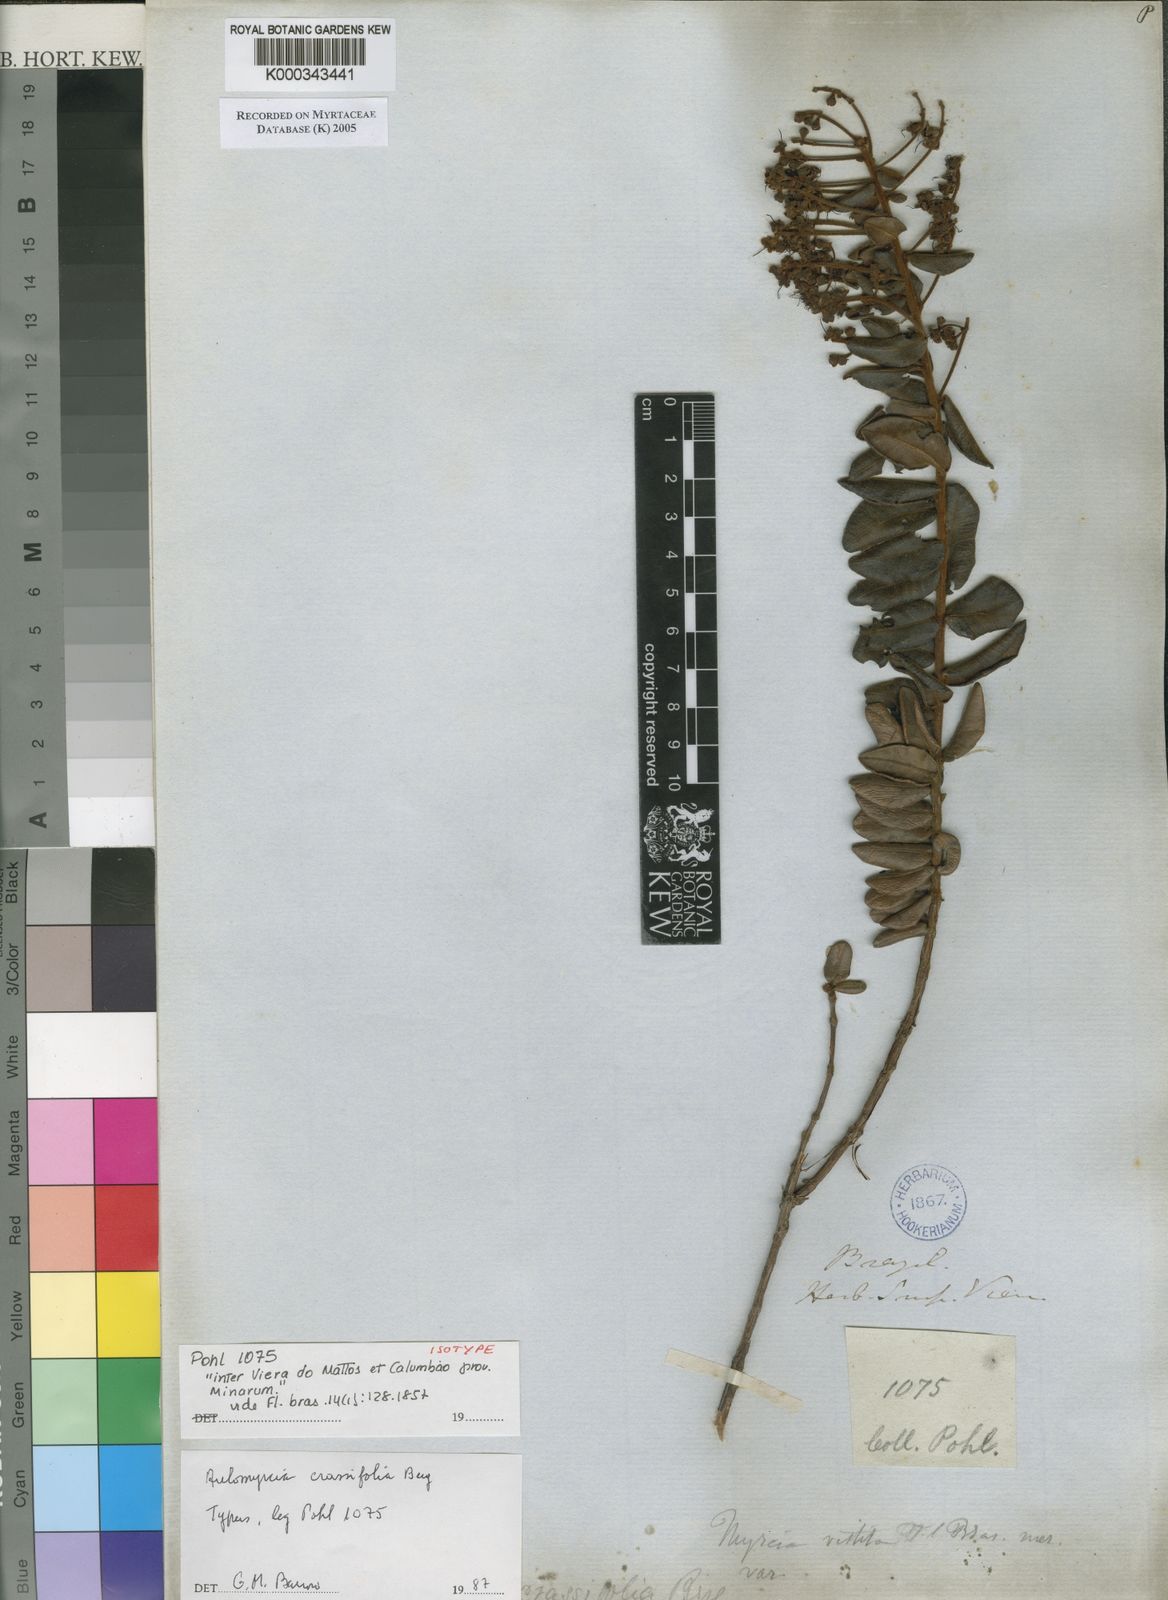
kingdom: Plantae
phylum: Tracheophyta
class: Magnoliopsida
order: Myrtales
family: Myrtaceae
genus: Myrcia
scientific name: Myrcia rufipes
